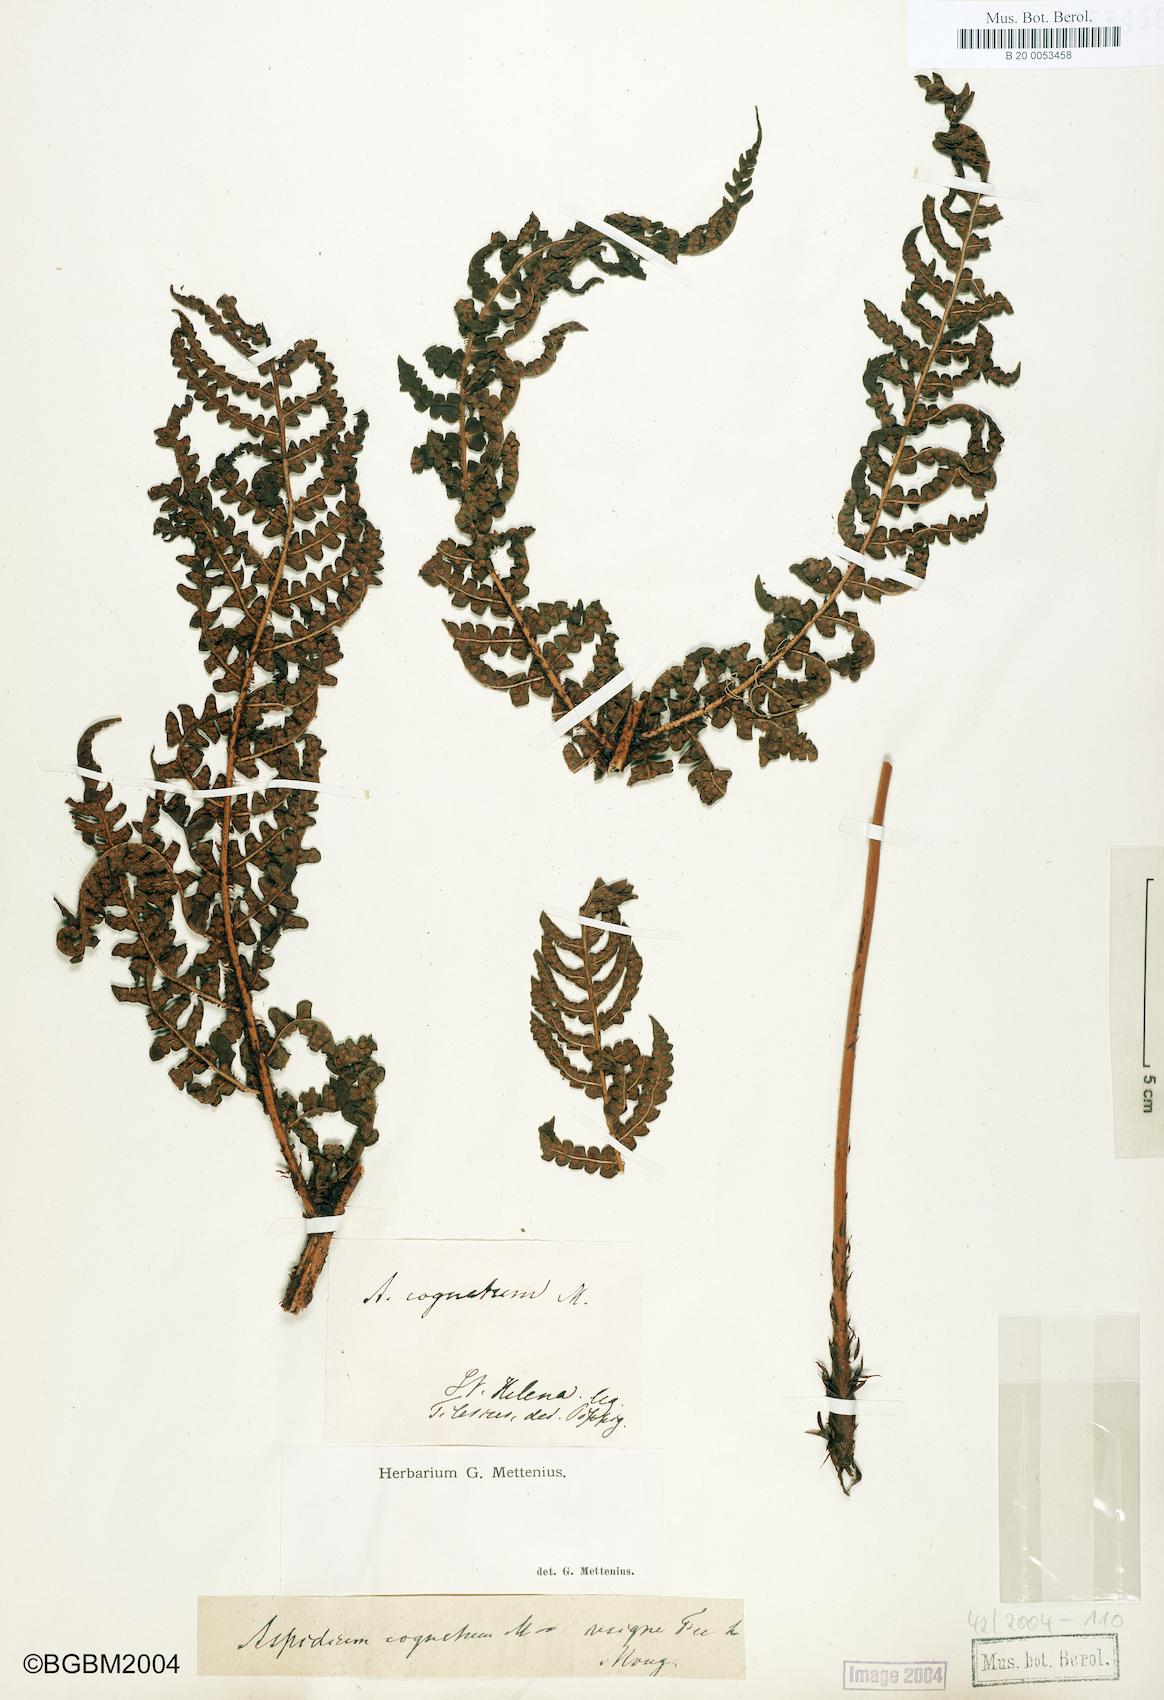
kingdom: Plantae
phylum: Tracheophyta
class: Polypodiopsida
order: Polypodiales
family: Dryopteridaceae
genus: Dryopteris
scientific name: Dryopteris cognata
